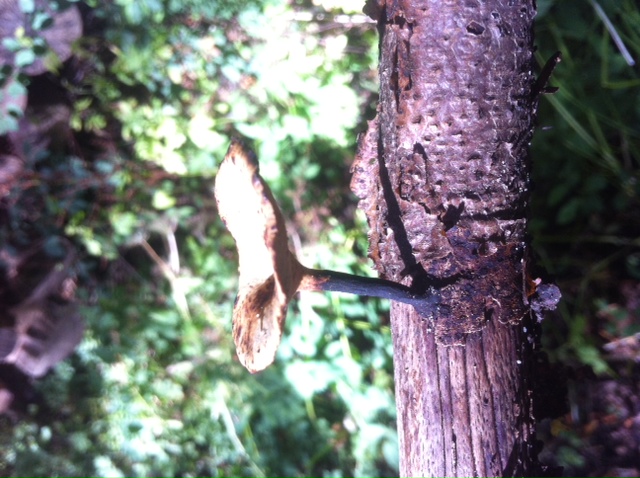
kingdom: Fungi
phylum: Basidiomycota
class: Agaricomycetes
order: Polyporales
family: Polyporaceae
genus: Cerioporus
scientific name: Cerioporus varius
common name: foranderlig stilkporesvamp
